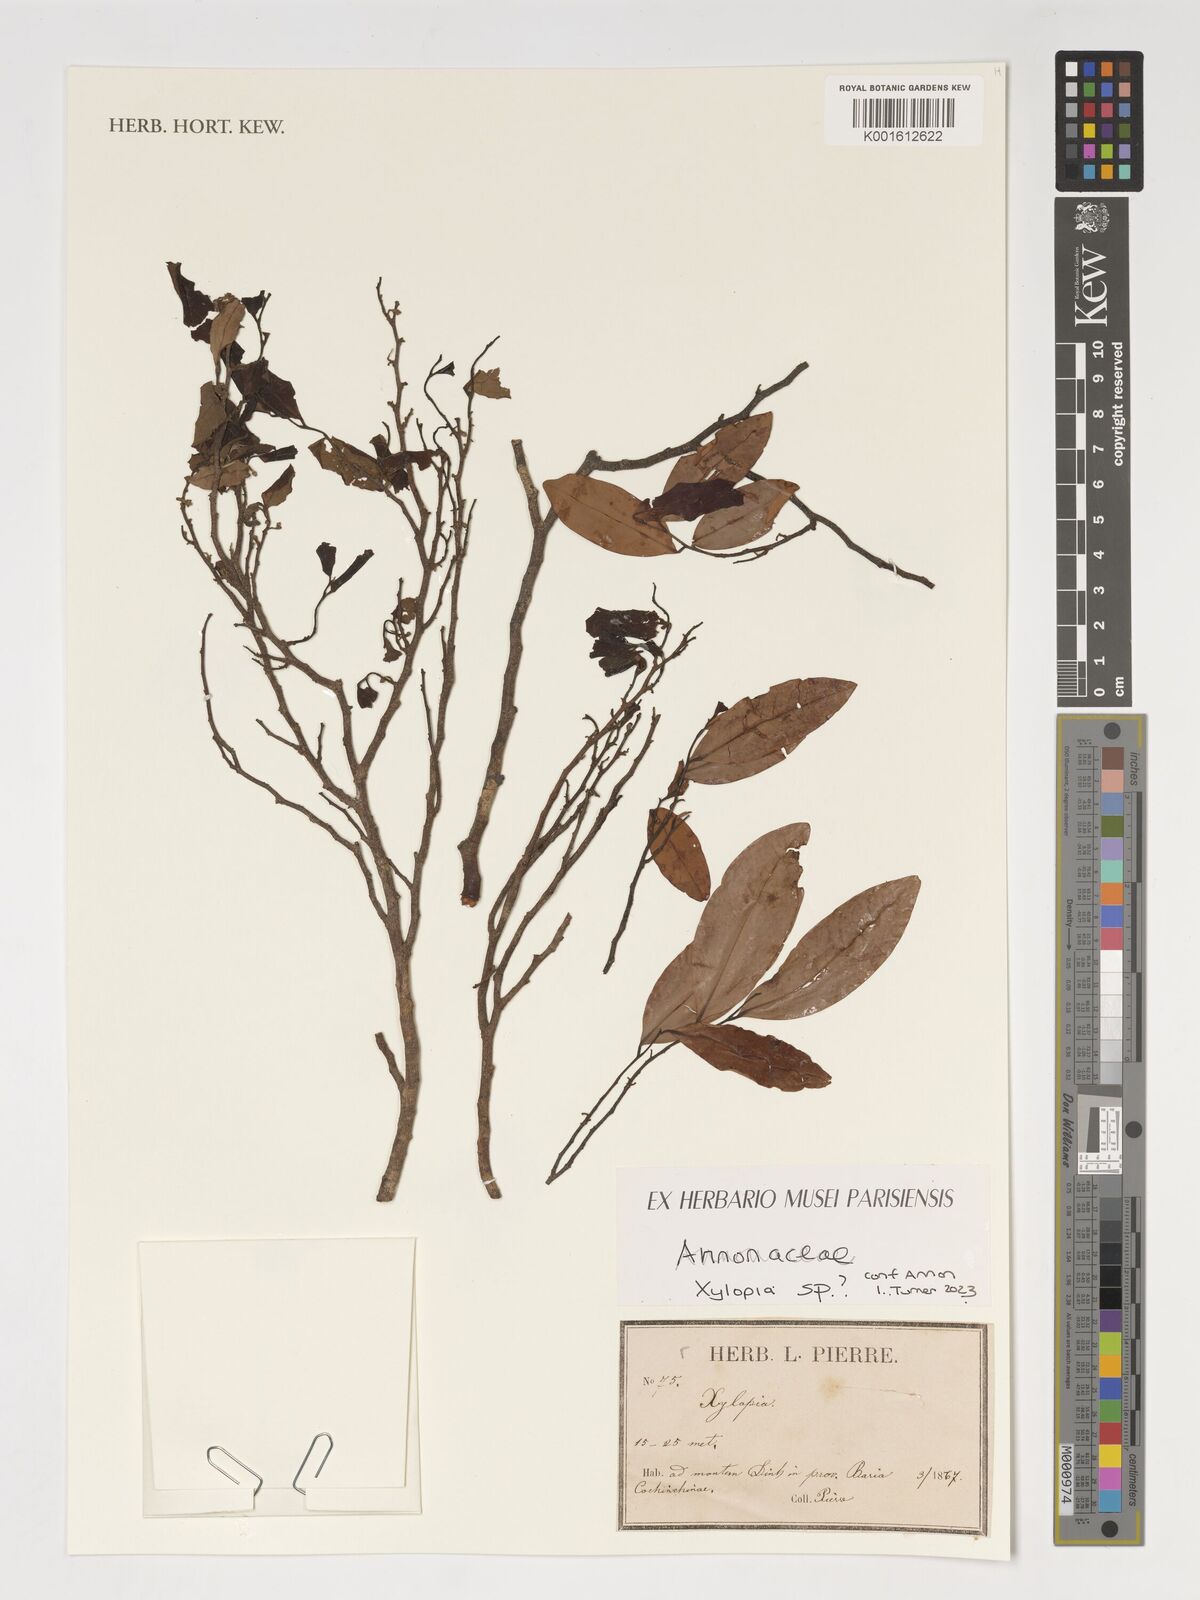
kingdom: Plantae
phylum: Tracheophyta
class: Magnoliopsida
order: Magnoliales
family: Annonaceae
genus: Xylopia
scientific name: Xylopia
